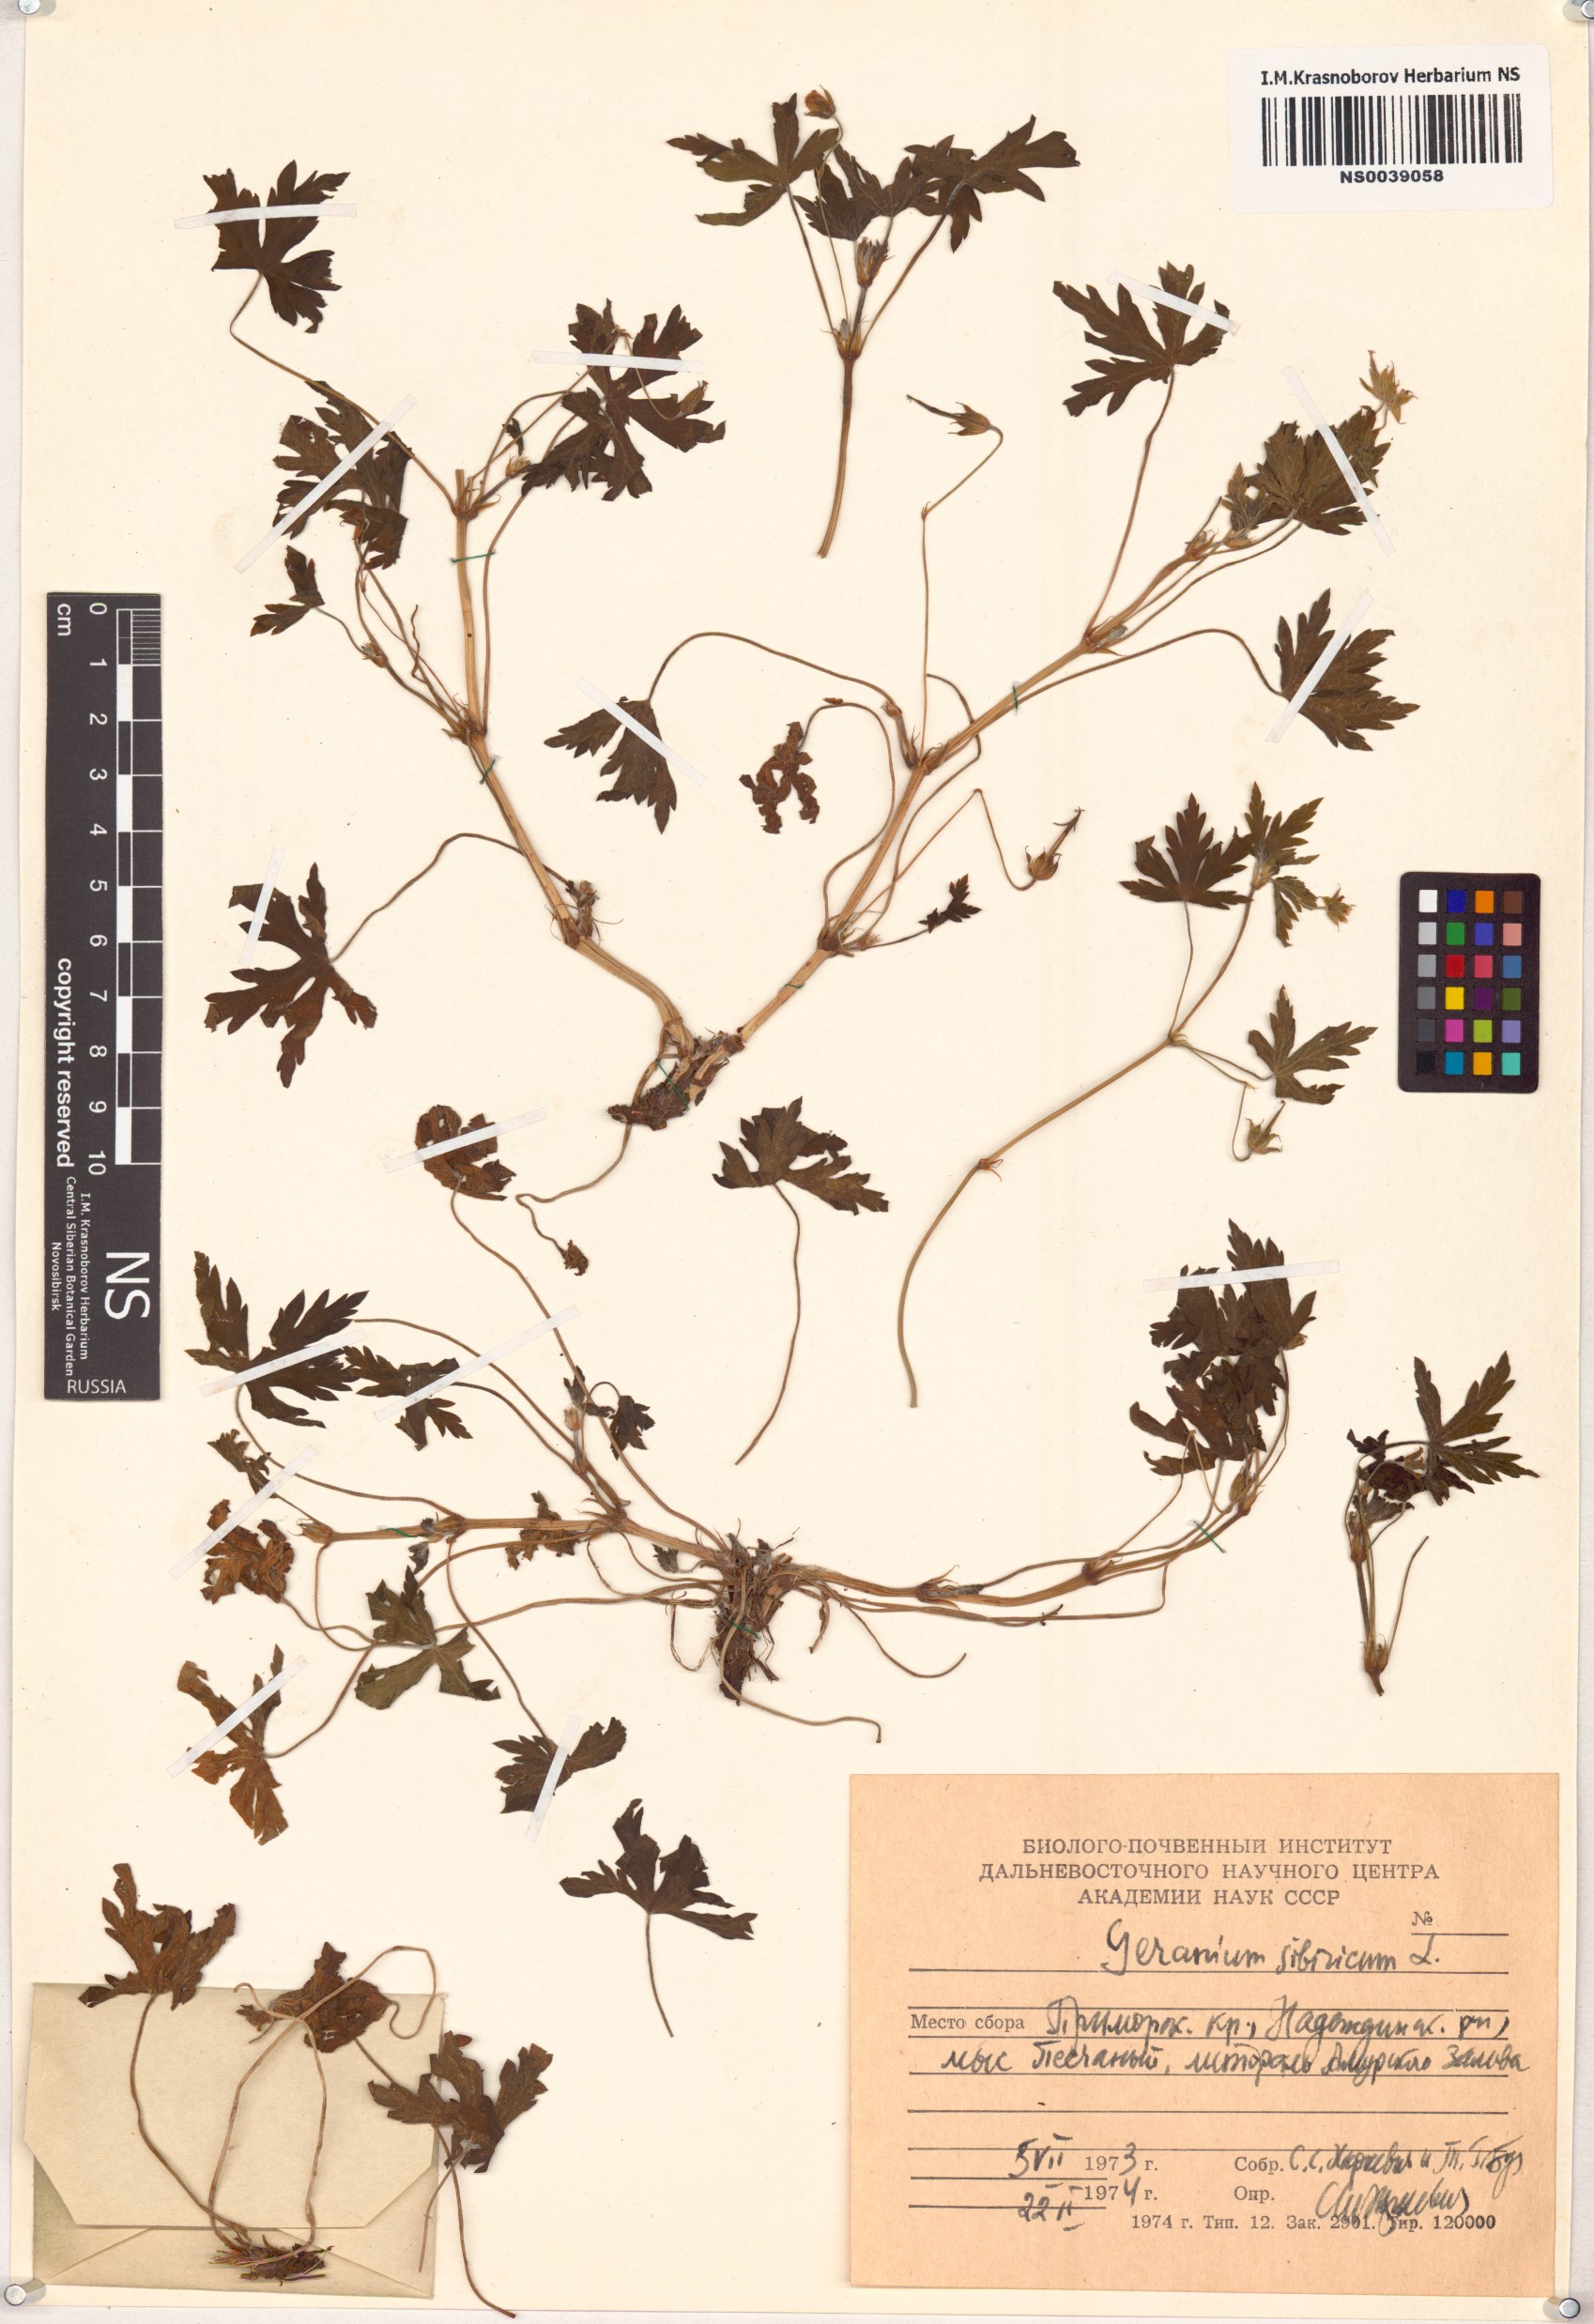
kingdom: Plantae
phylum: Tracheophyta
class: Magnoliopsida
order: Geraniales
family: Geraniaceae
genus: Geranium
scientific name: Geranium sibiricum
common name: Siberian crane's-bill
